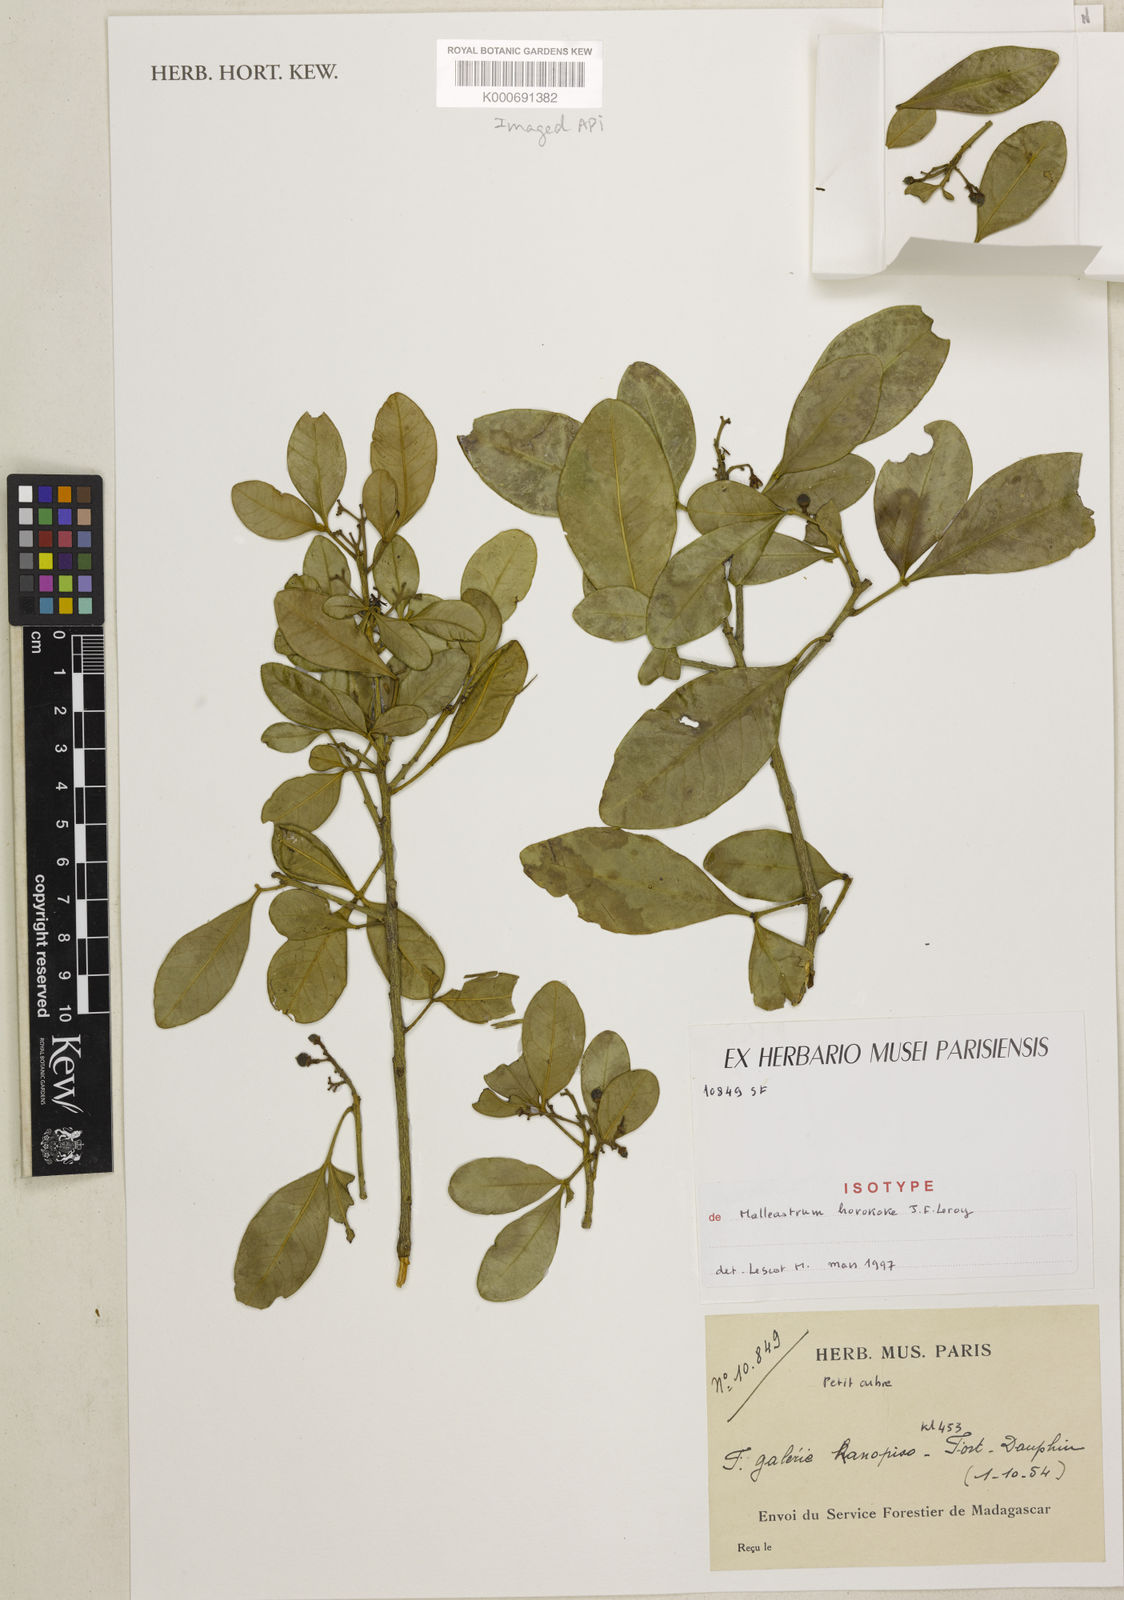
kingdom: Plantae
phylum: Tracheophyta
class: Magnoliopsida
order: Sapindales
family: Meliaceae
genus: Malleastrum
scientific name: Malleastrum horokoke
